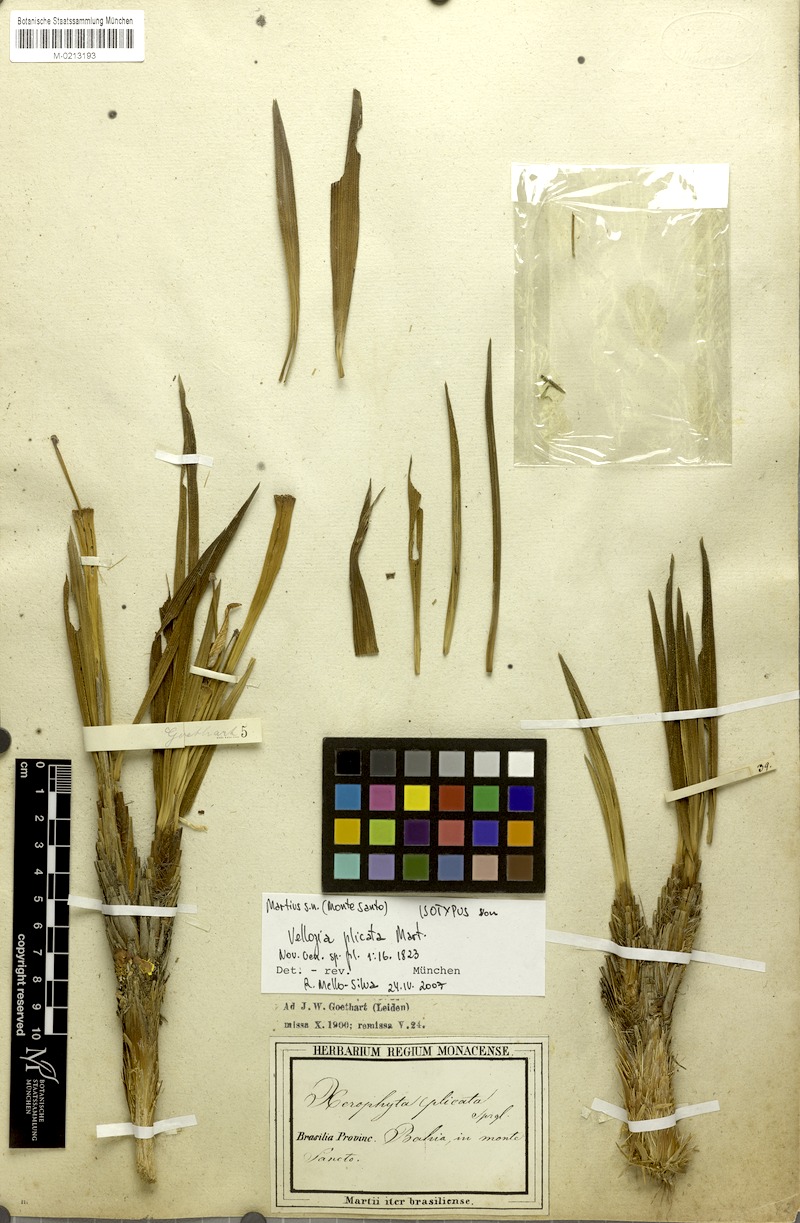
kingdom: Plantae
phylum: Tracheophyta
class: Liliopsida
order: Pandanales
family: Velloziaceae
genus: Nanuza
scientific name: Nanuza plicata
